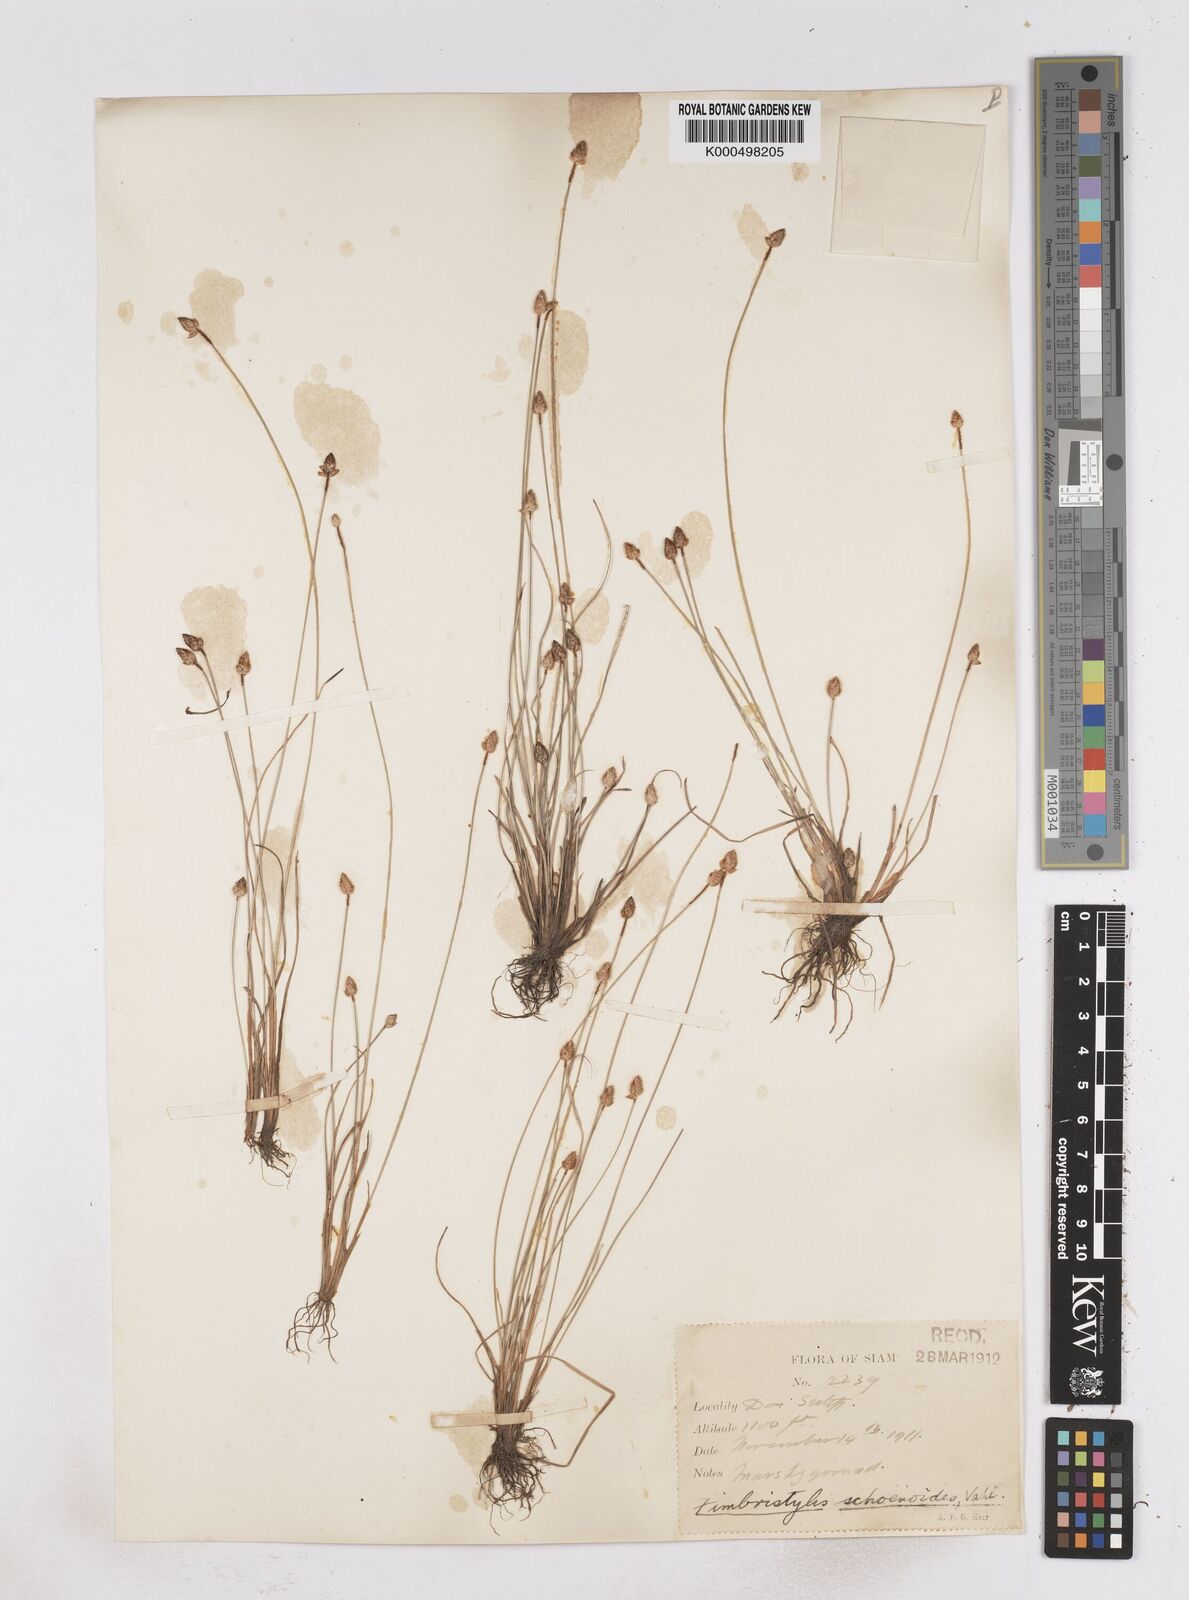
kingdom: Plantae
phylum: Tracheophyta
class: Liliopsida
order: Poales
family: Cyperaceae
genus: Fimbristylis
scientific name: Fimbristylis schoenoides
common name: Ditch fimbry
